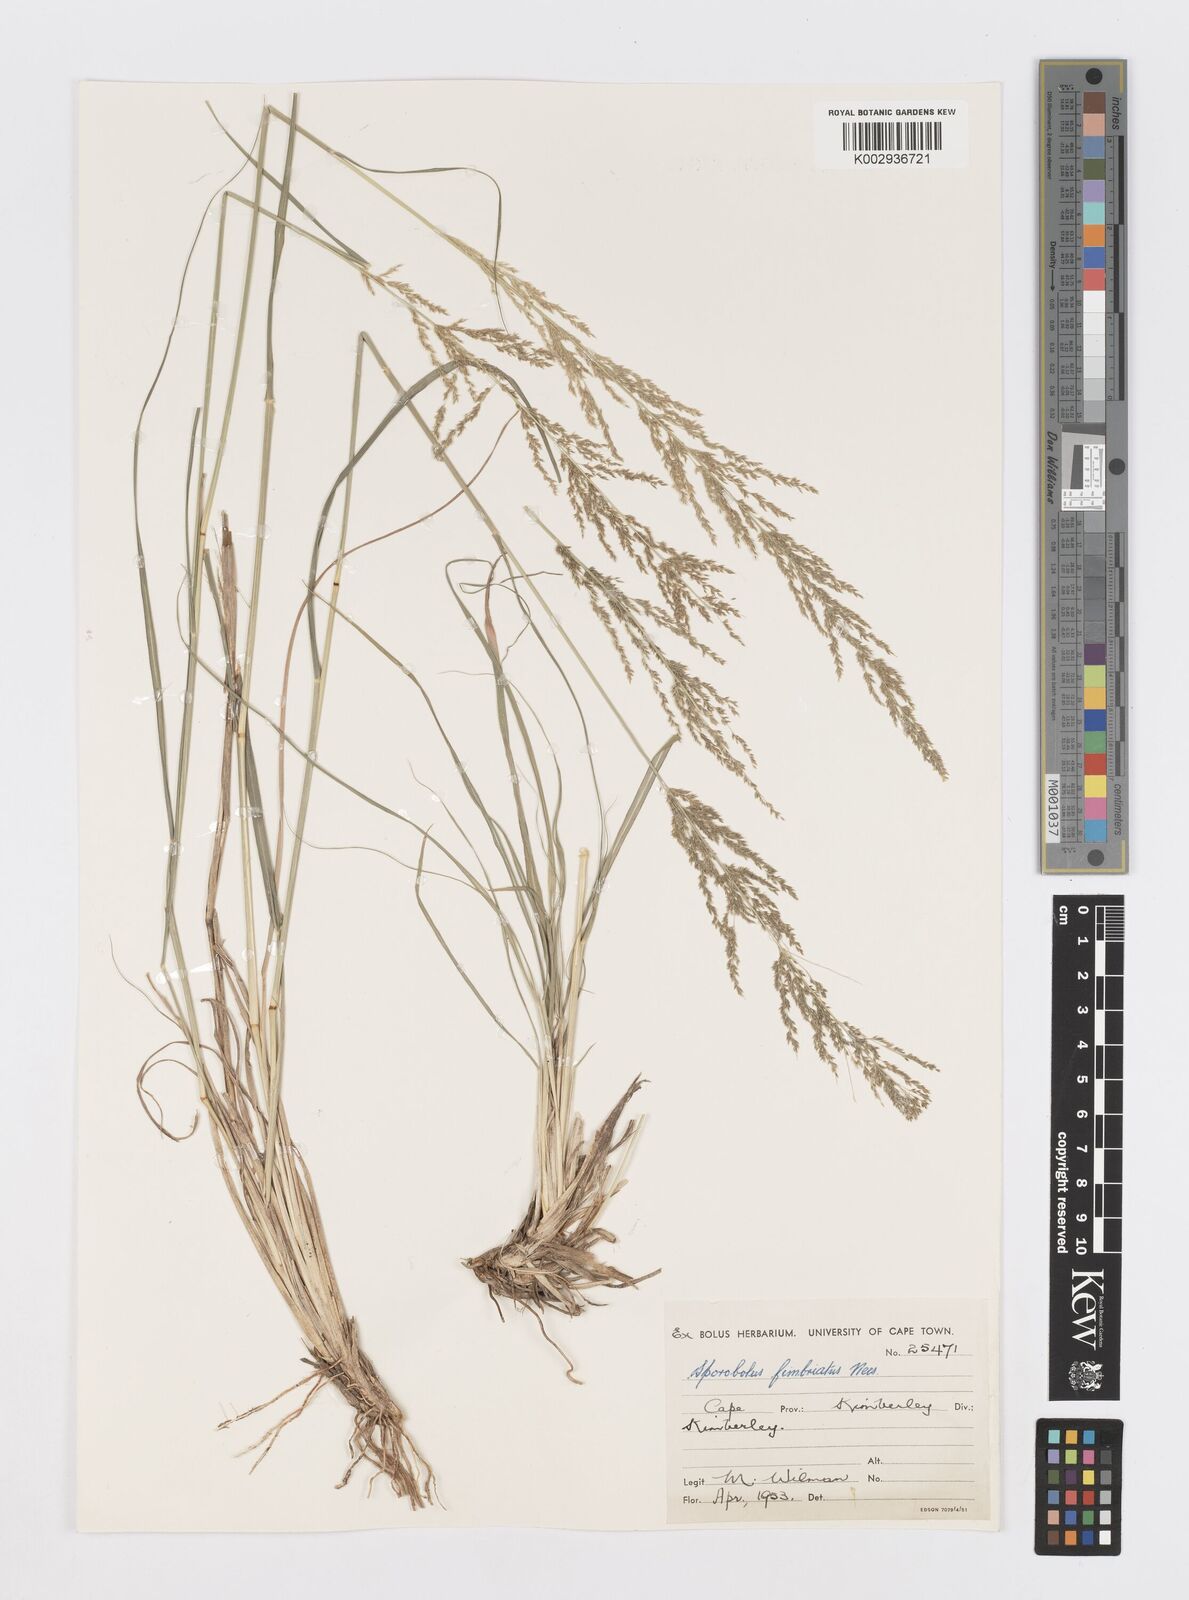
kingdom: Plantae
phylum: Tracheophyta
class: Liliopsida
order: Poales
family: Poaceae
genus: Sporobolus
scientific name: Sporobolus fimbriatus
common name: Fringed dropseed
